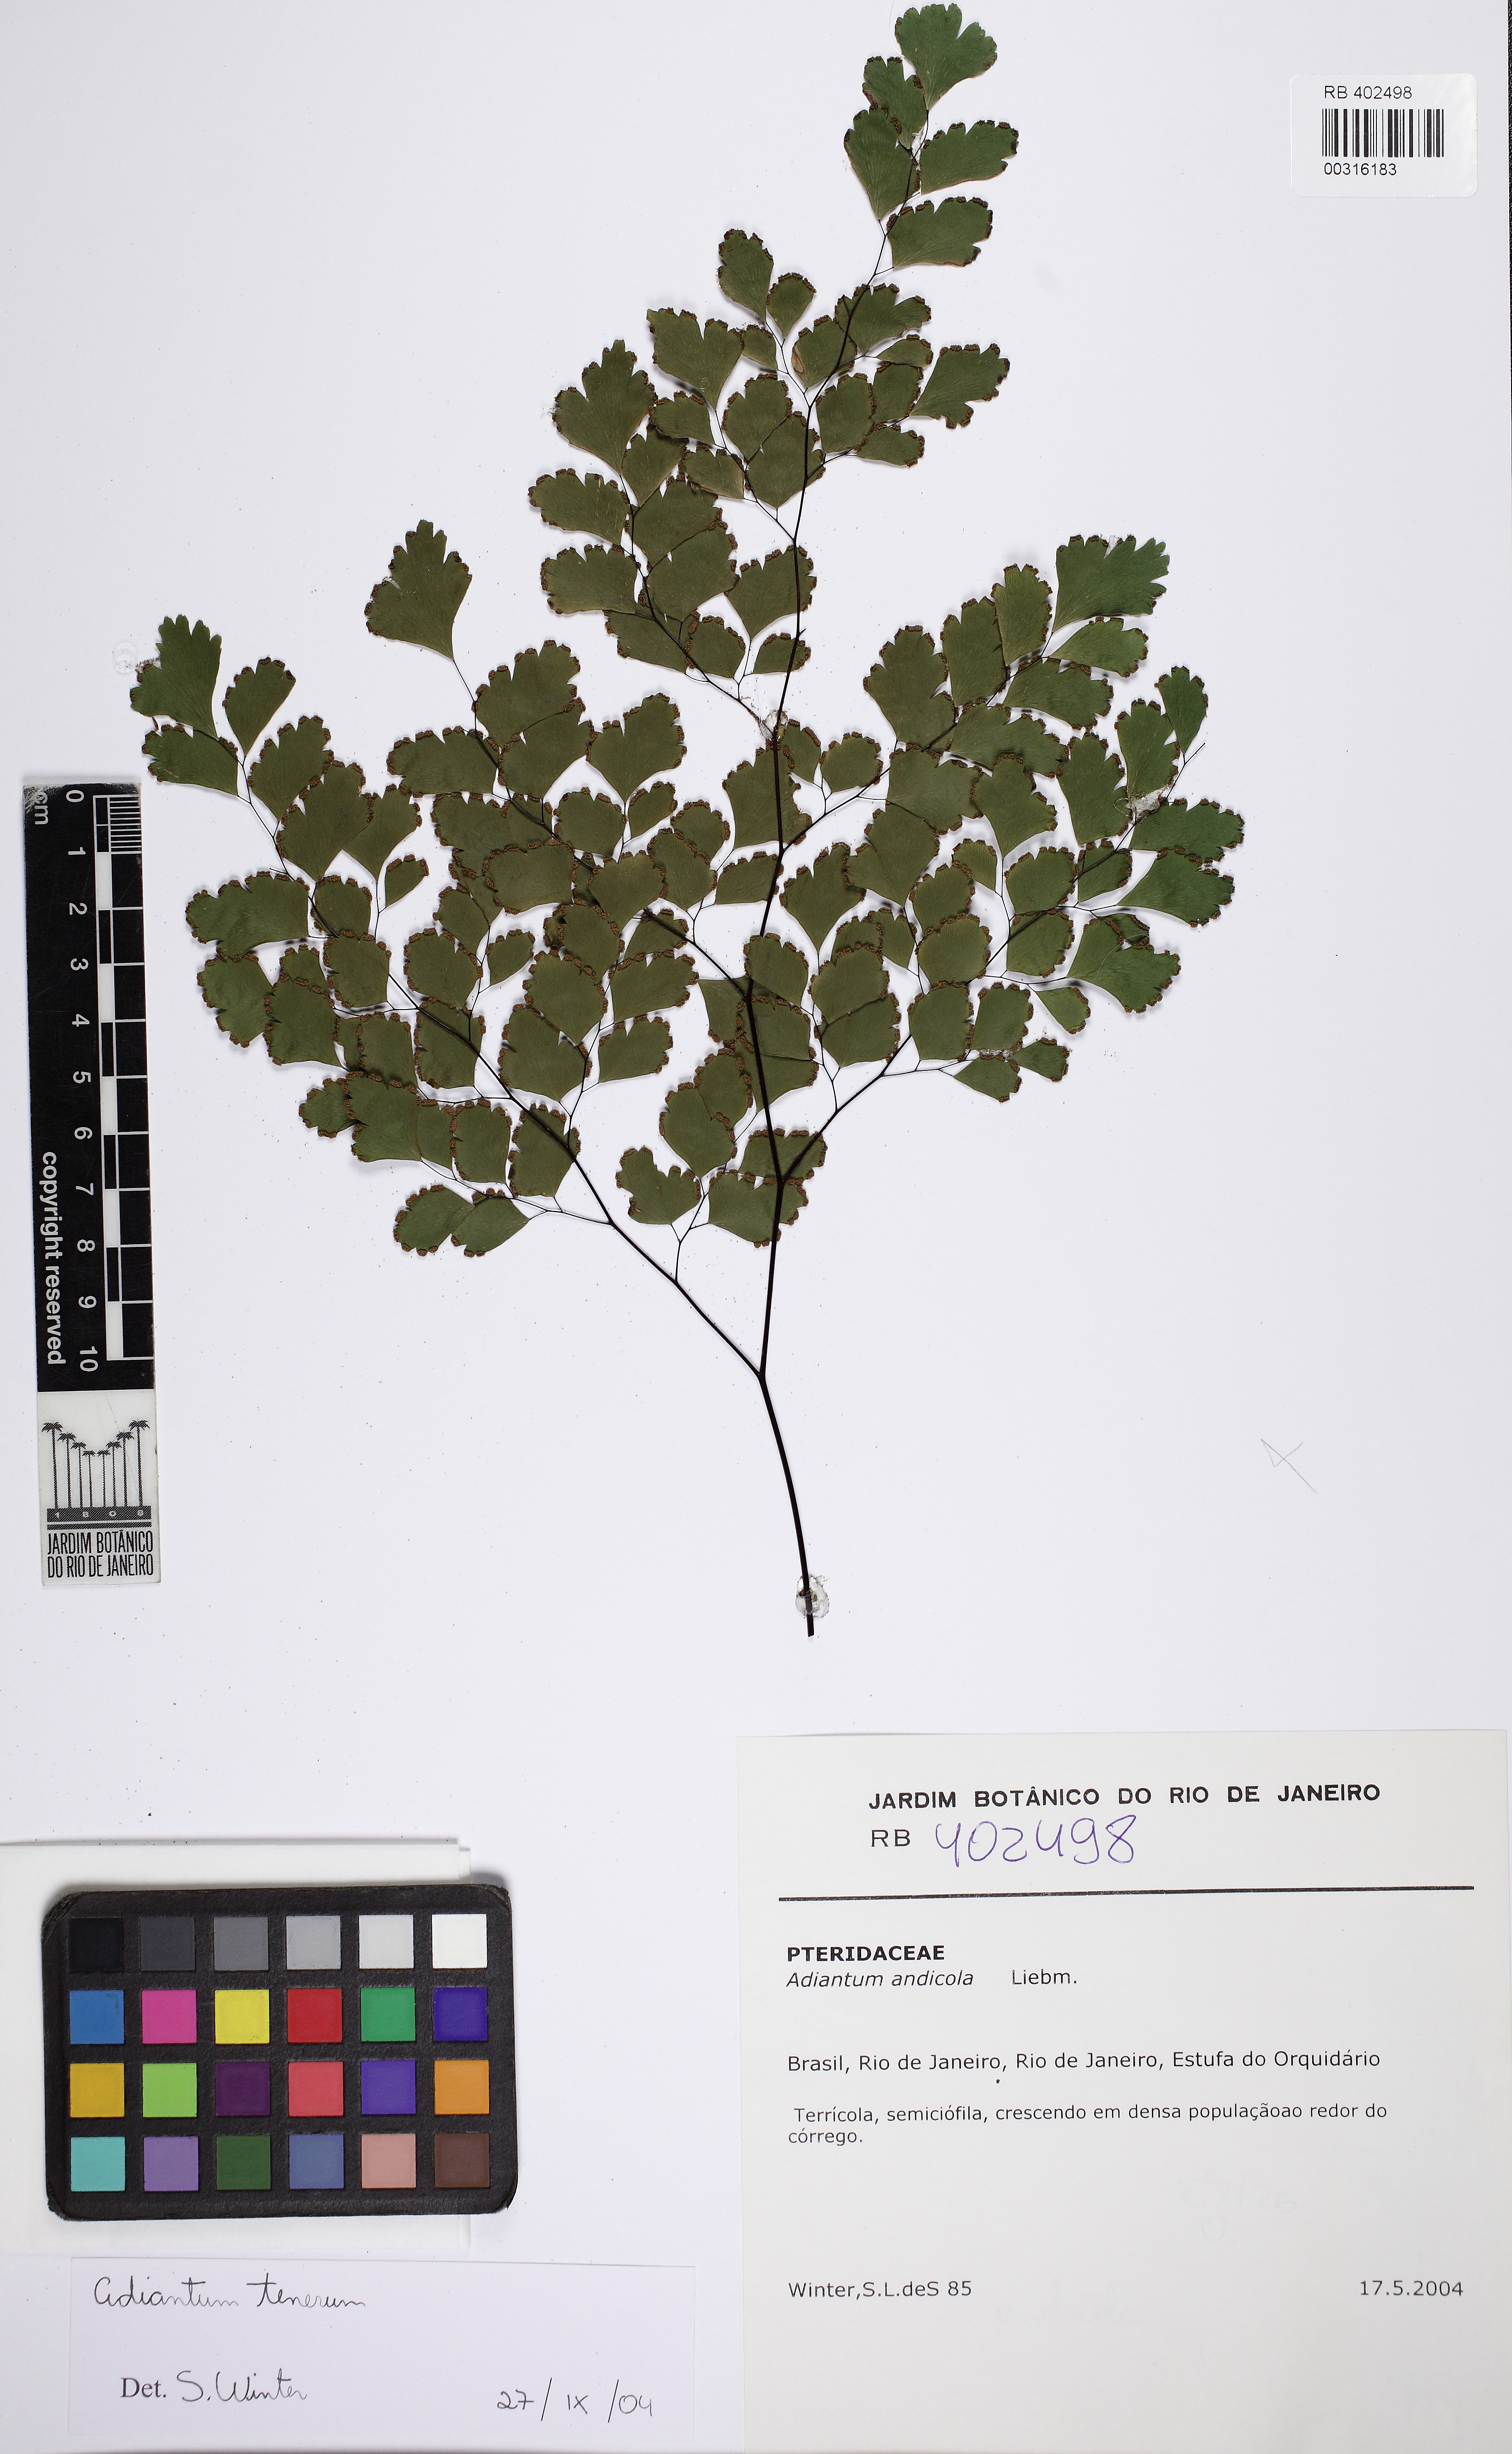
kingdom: Plantae
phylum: Tracheophyta
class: Polypodiopsida
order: Polypodiales
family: Pteridaceae
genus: Adiantum
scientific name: Adiantum tenerum
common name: Fan maidenhair
